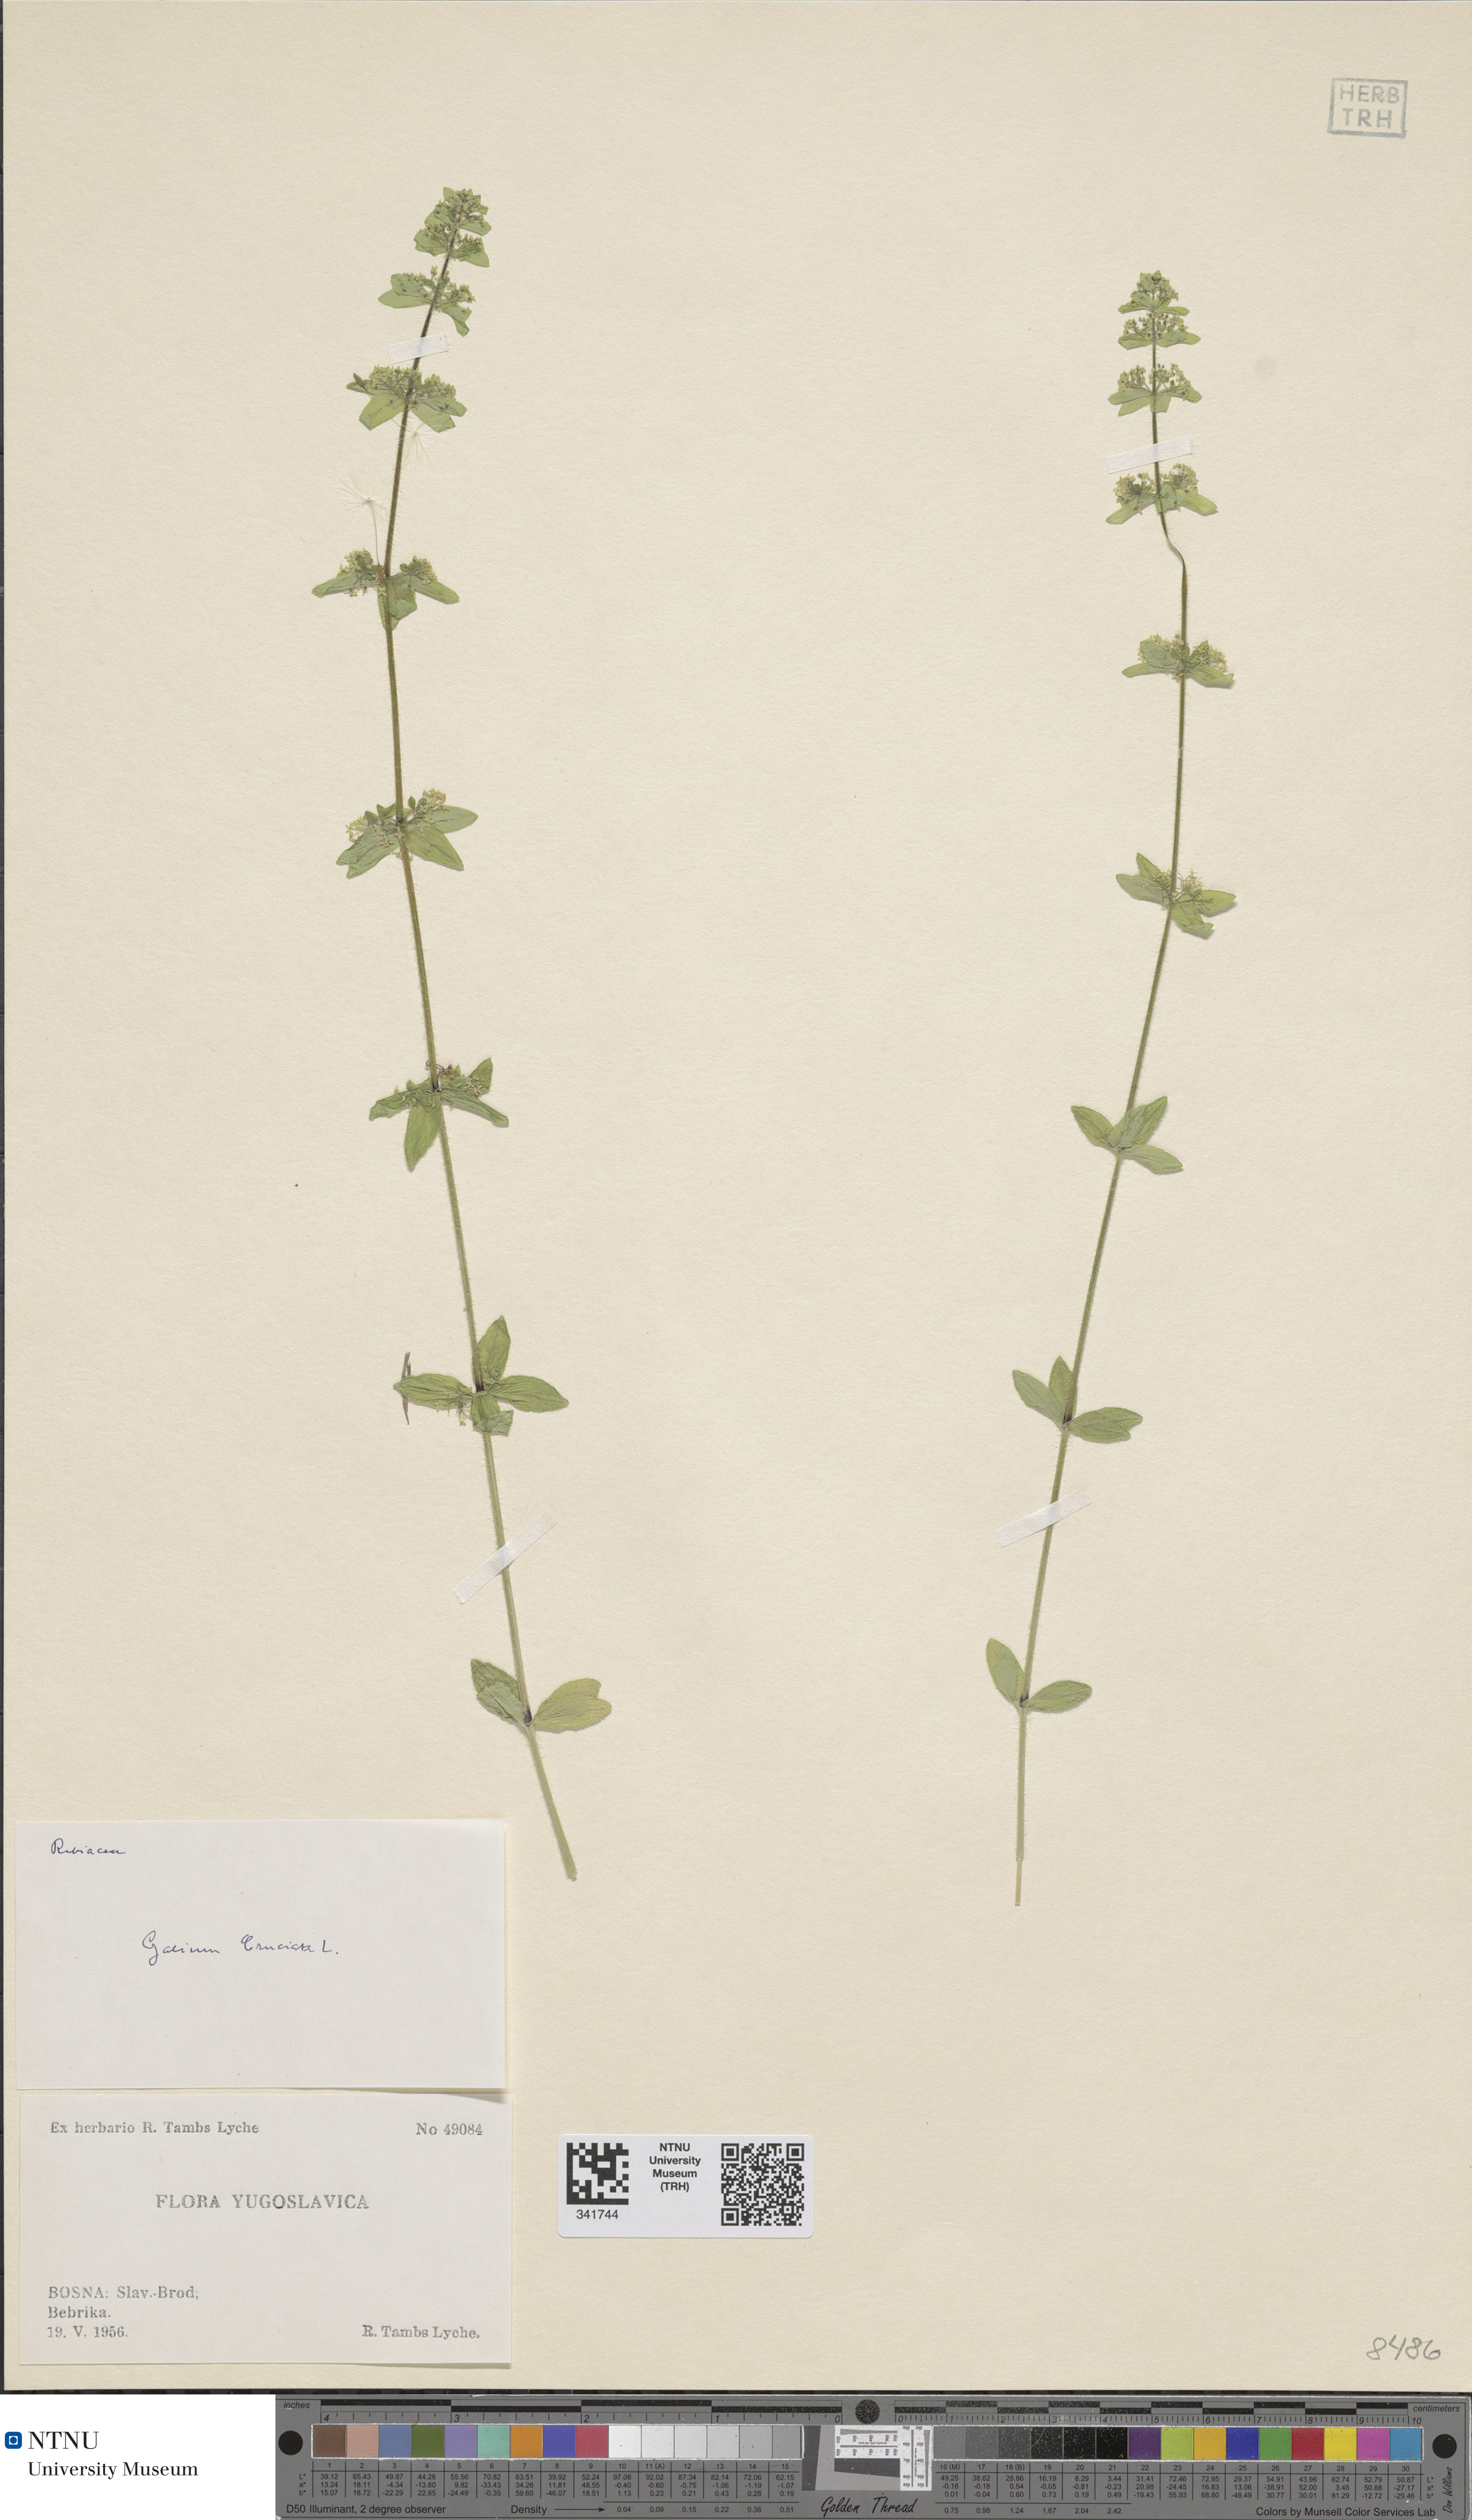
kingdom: Plantae
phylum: Tracheophyta
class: Magnoliopsida
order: Gentianales
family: Rubiaceae
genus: Cruciata
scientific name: Cruciata laevipes
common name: Crosswort
